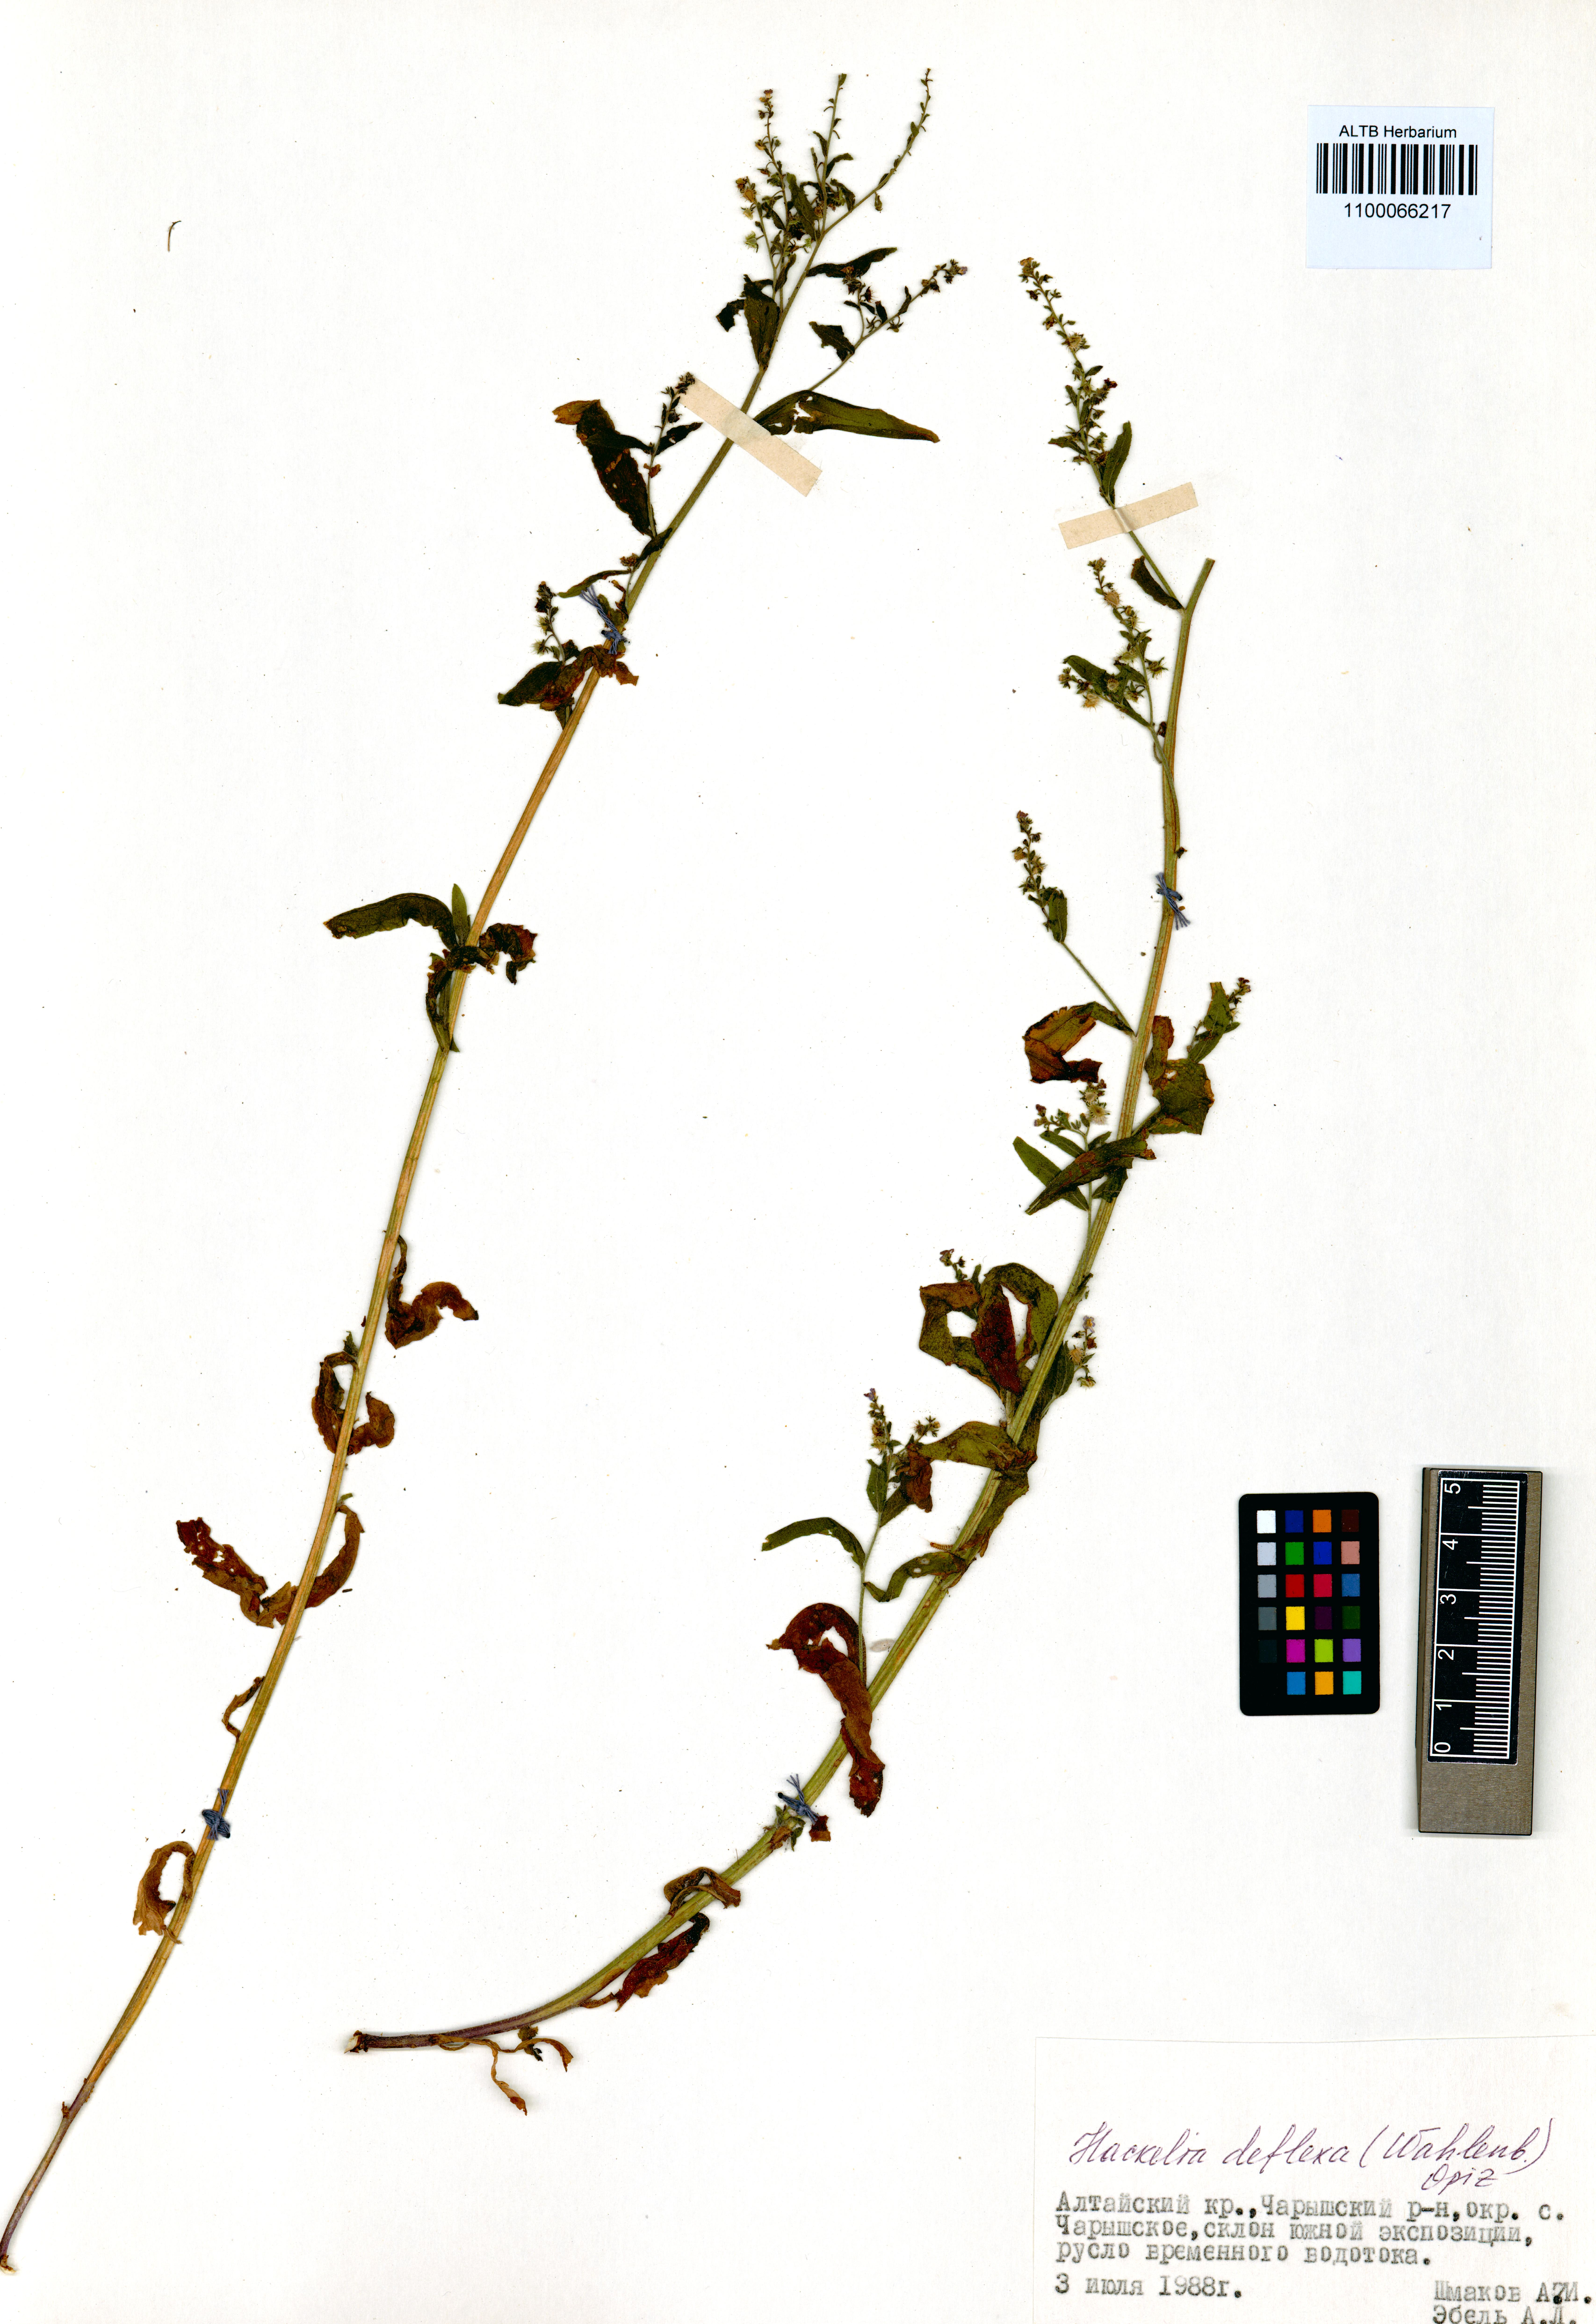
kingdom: Plantae
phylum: Tracheophyta
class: Magnoliopsida
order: Boraginales
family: Boraginaceae
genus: Hackelia
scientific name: Hackelia deflexa
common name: Nodding stickseed
